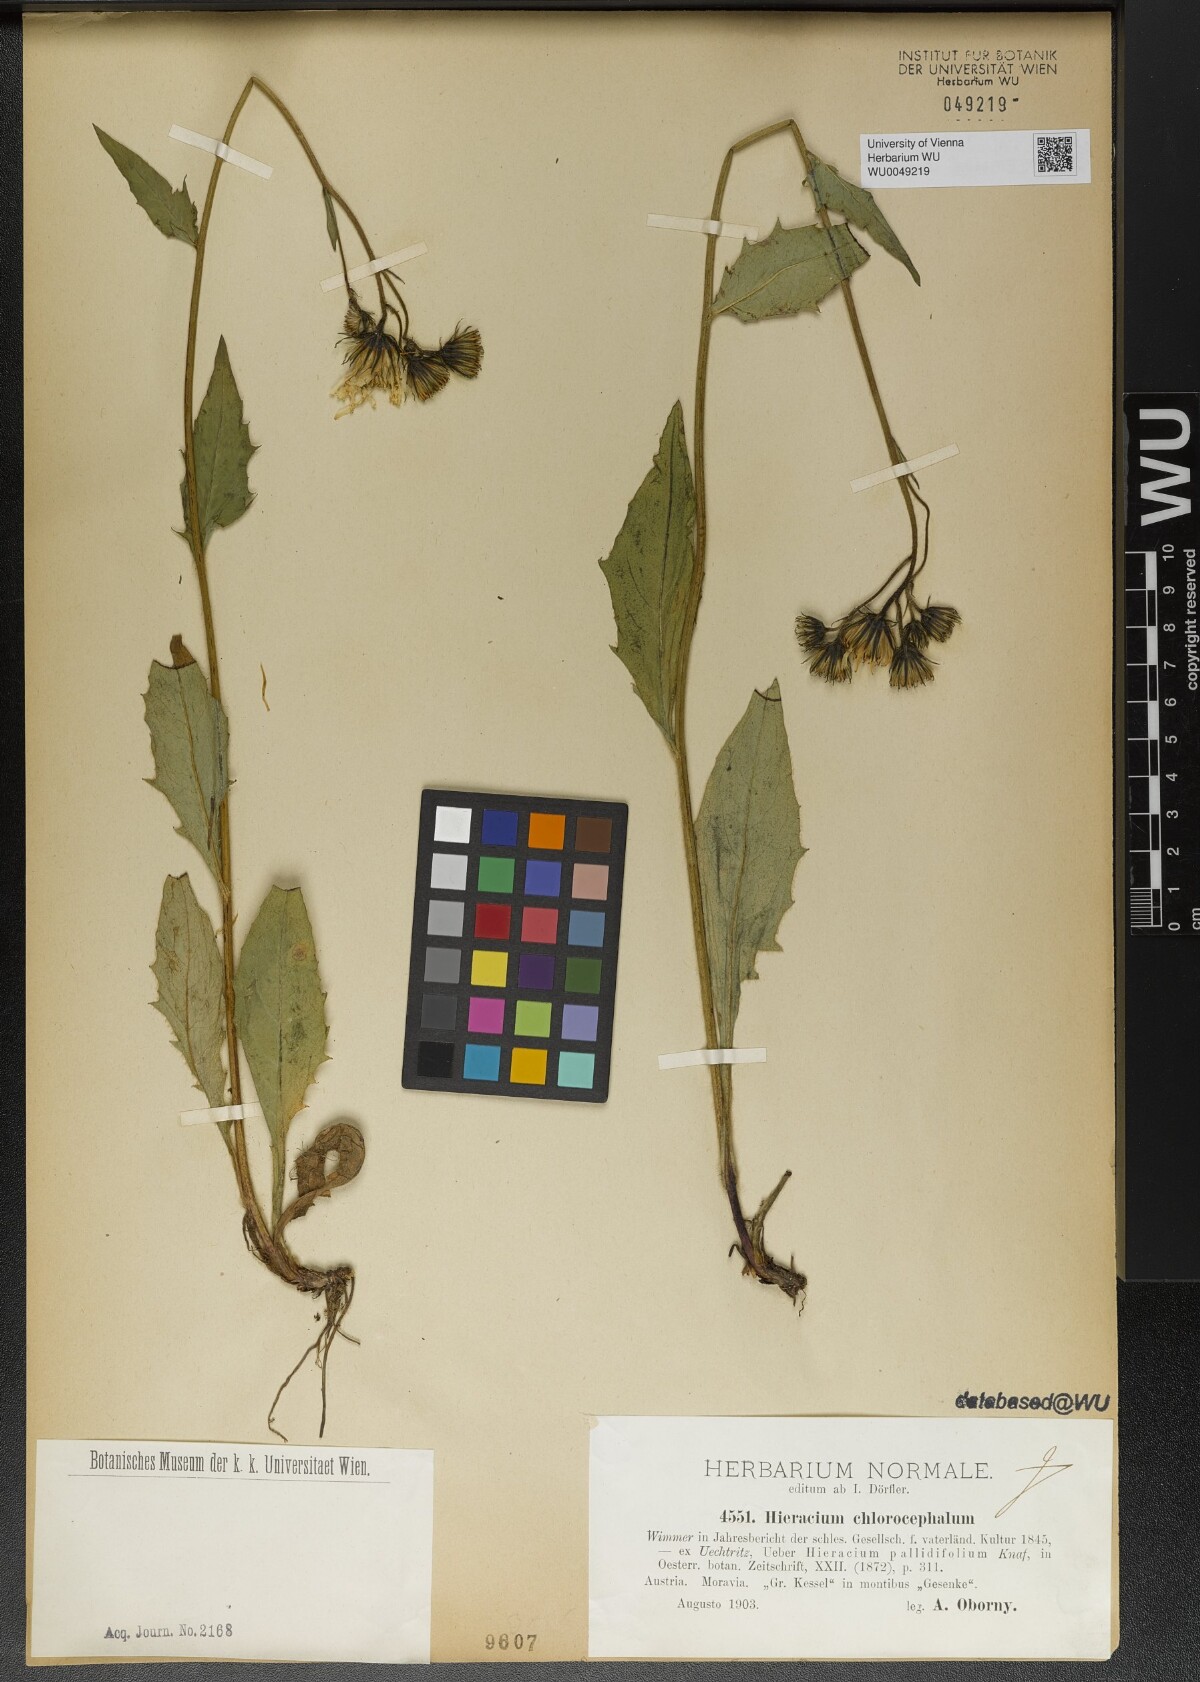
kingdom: Plantae
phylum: Tracheophyta
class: Magnoliopsida
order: Asterales
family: Asteraceae
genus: Hieracium
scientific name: Hieracium chlorocephalum
